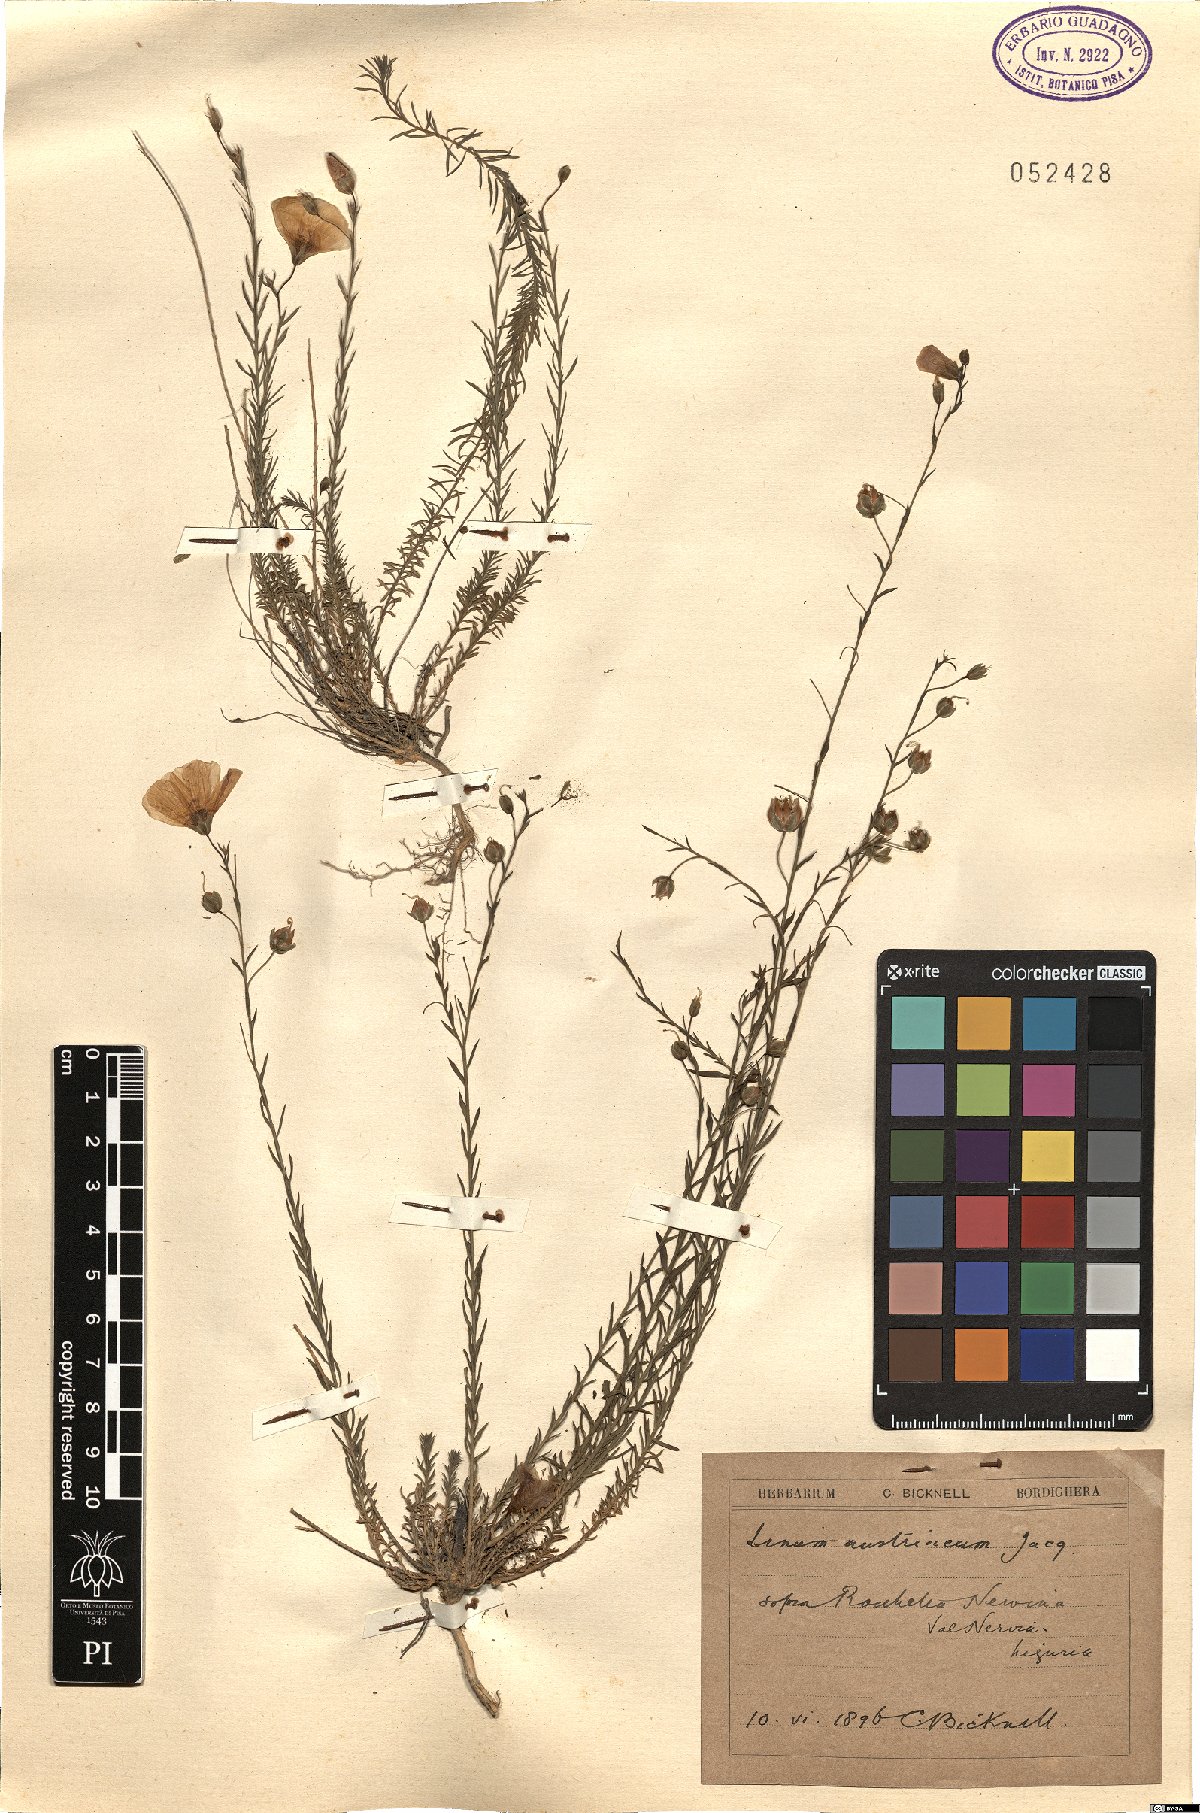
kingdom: Plantae
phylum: Tracheophyta
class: Magnoliopsida
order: Malpighiales
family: Linaceae
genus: Linum
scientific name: Linum austriacum
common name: Austrian flax
